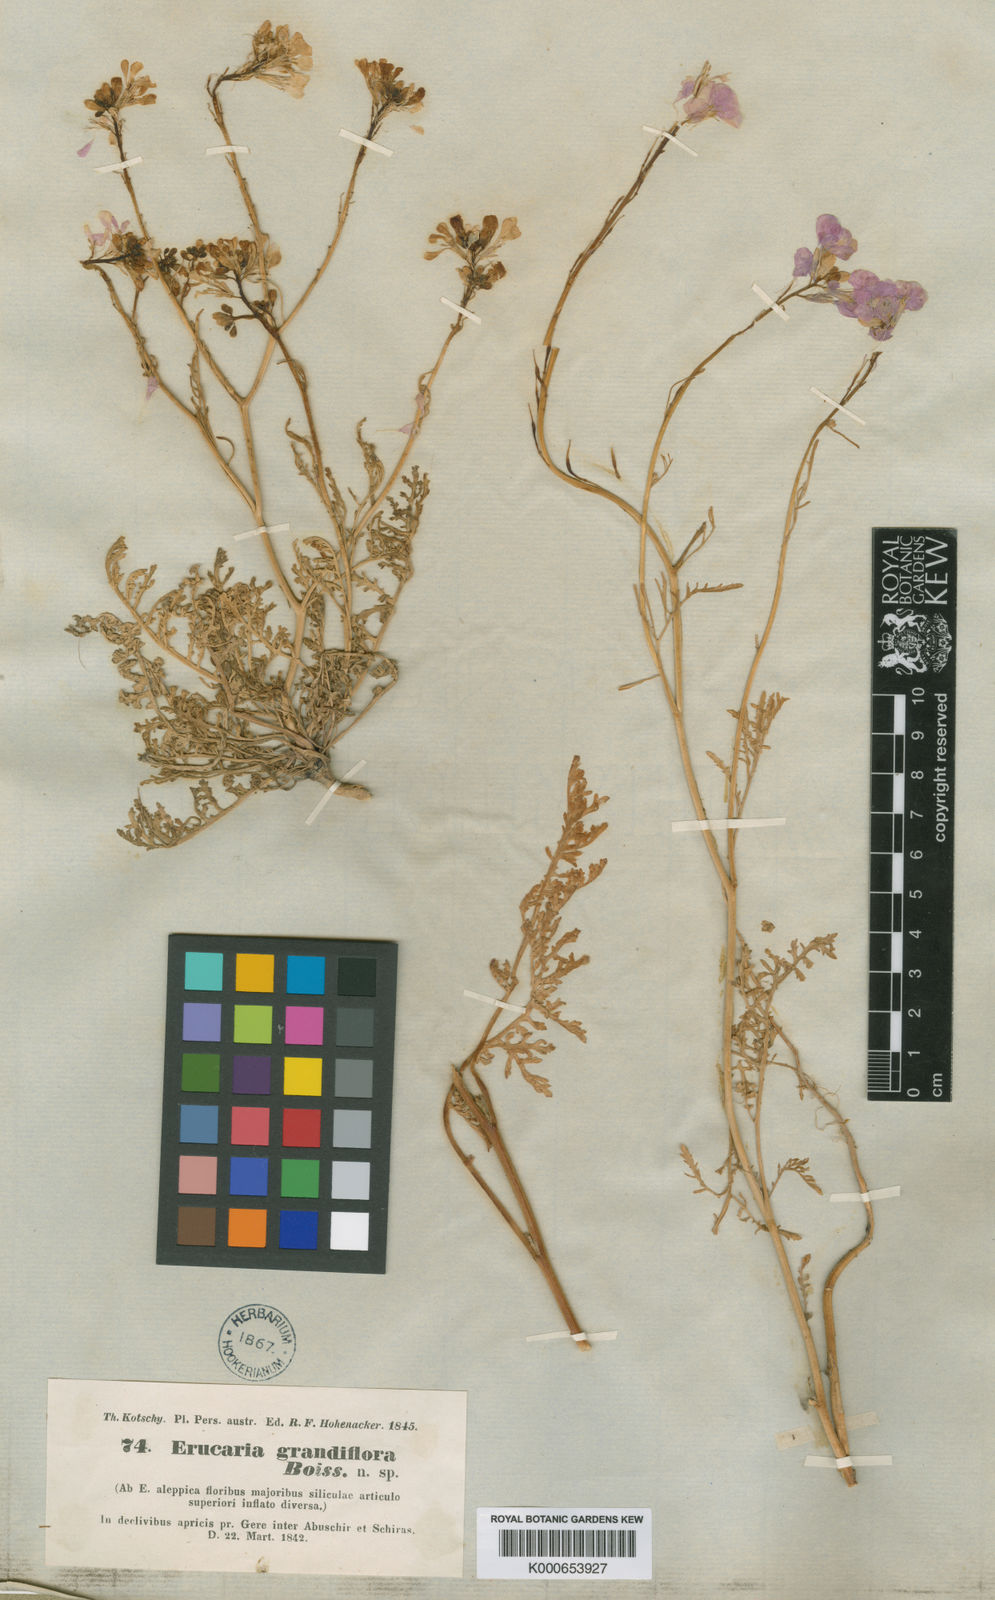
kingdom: Plantae
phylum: Tracheophyta
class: Magnoliopsida
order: Brassicales
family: Brassicaceae
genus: Erucaria
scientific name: Erucaria hispanica
